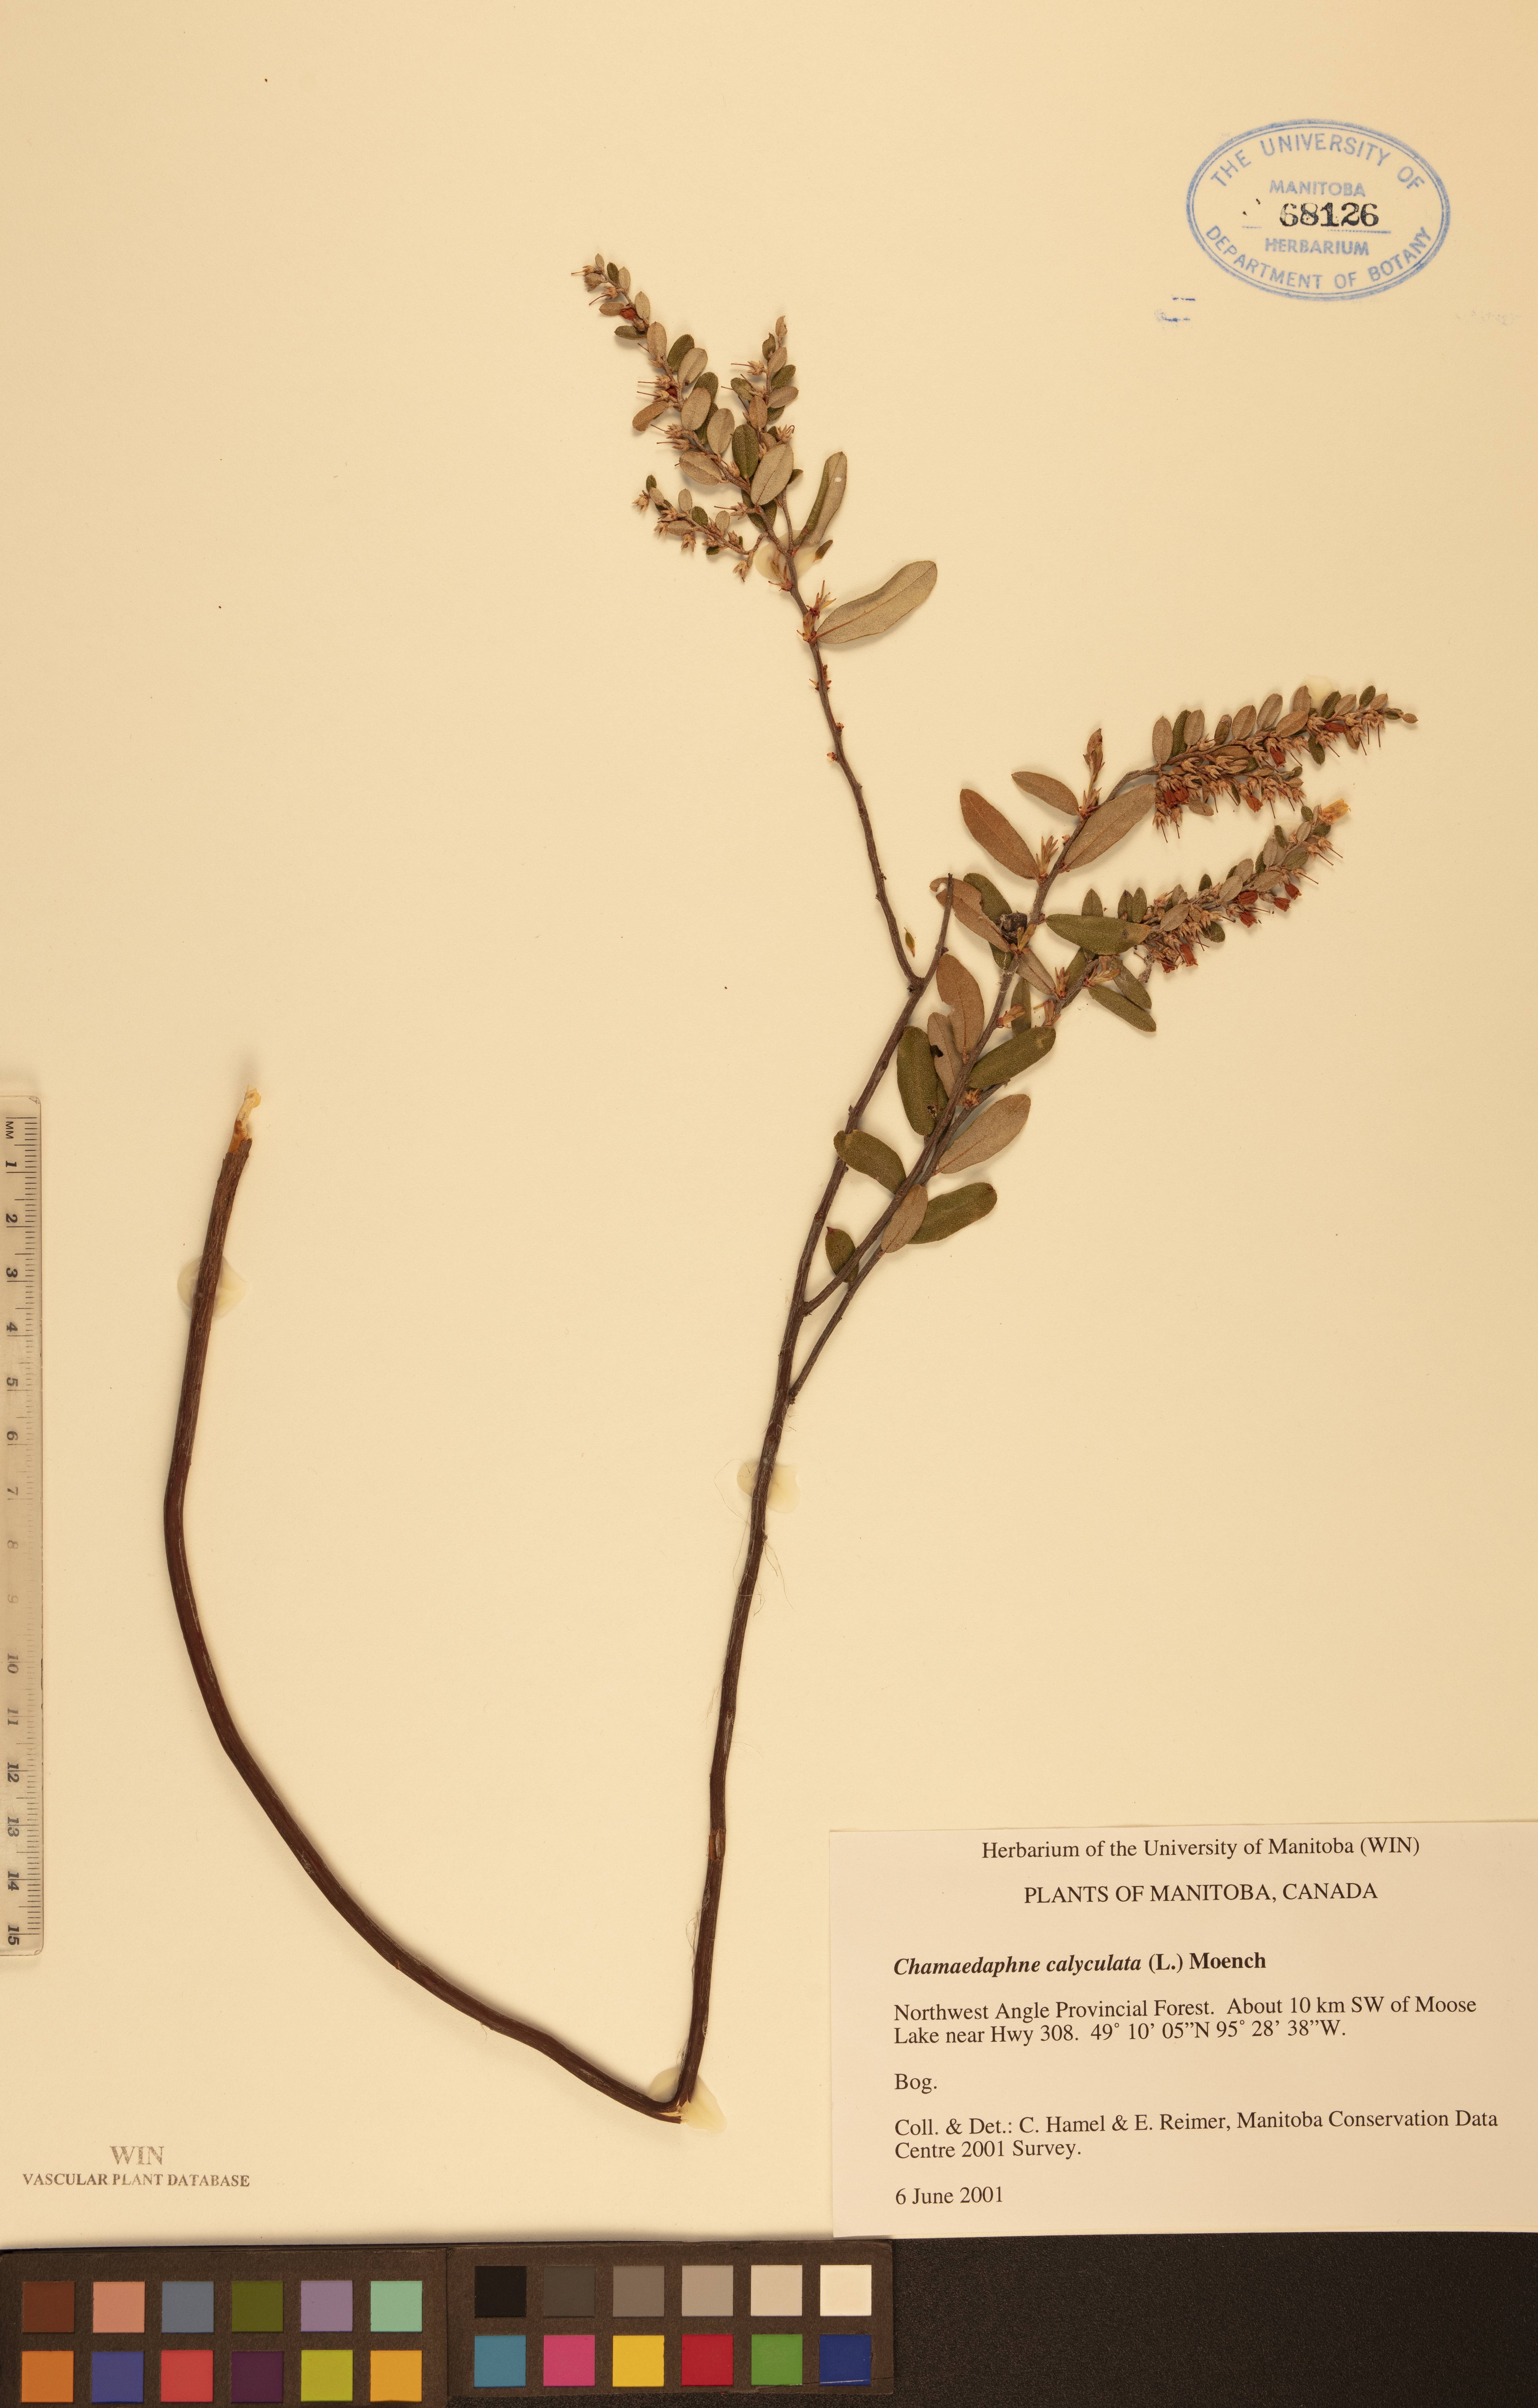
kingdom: Plantae
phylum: Tracheophyta
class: Magnoliopsida
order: Ericales
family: Ericaceae
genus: Chamaedaphne
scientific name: Chamaedaphne calyculata
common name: Leatherleaf
